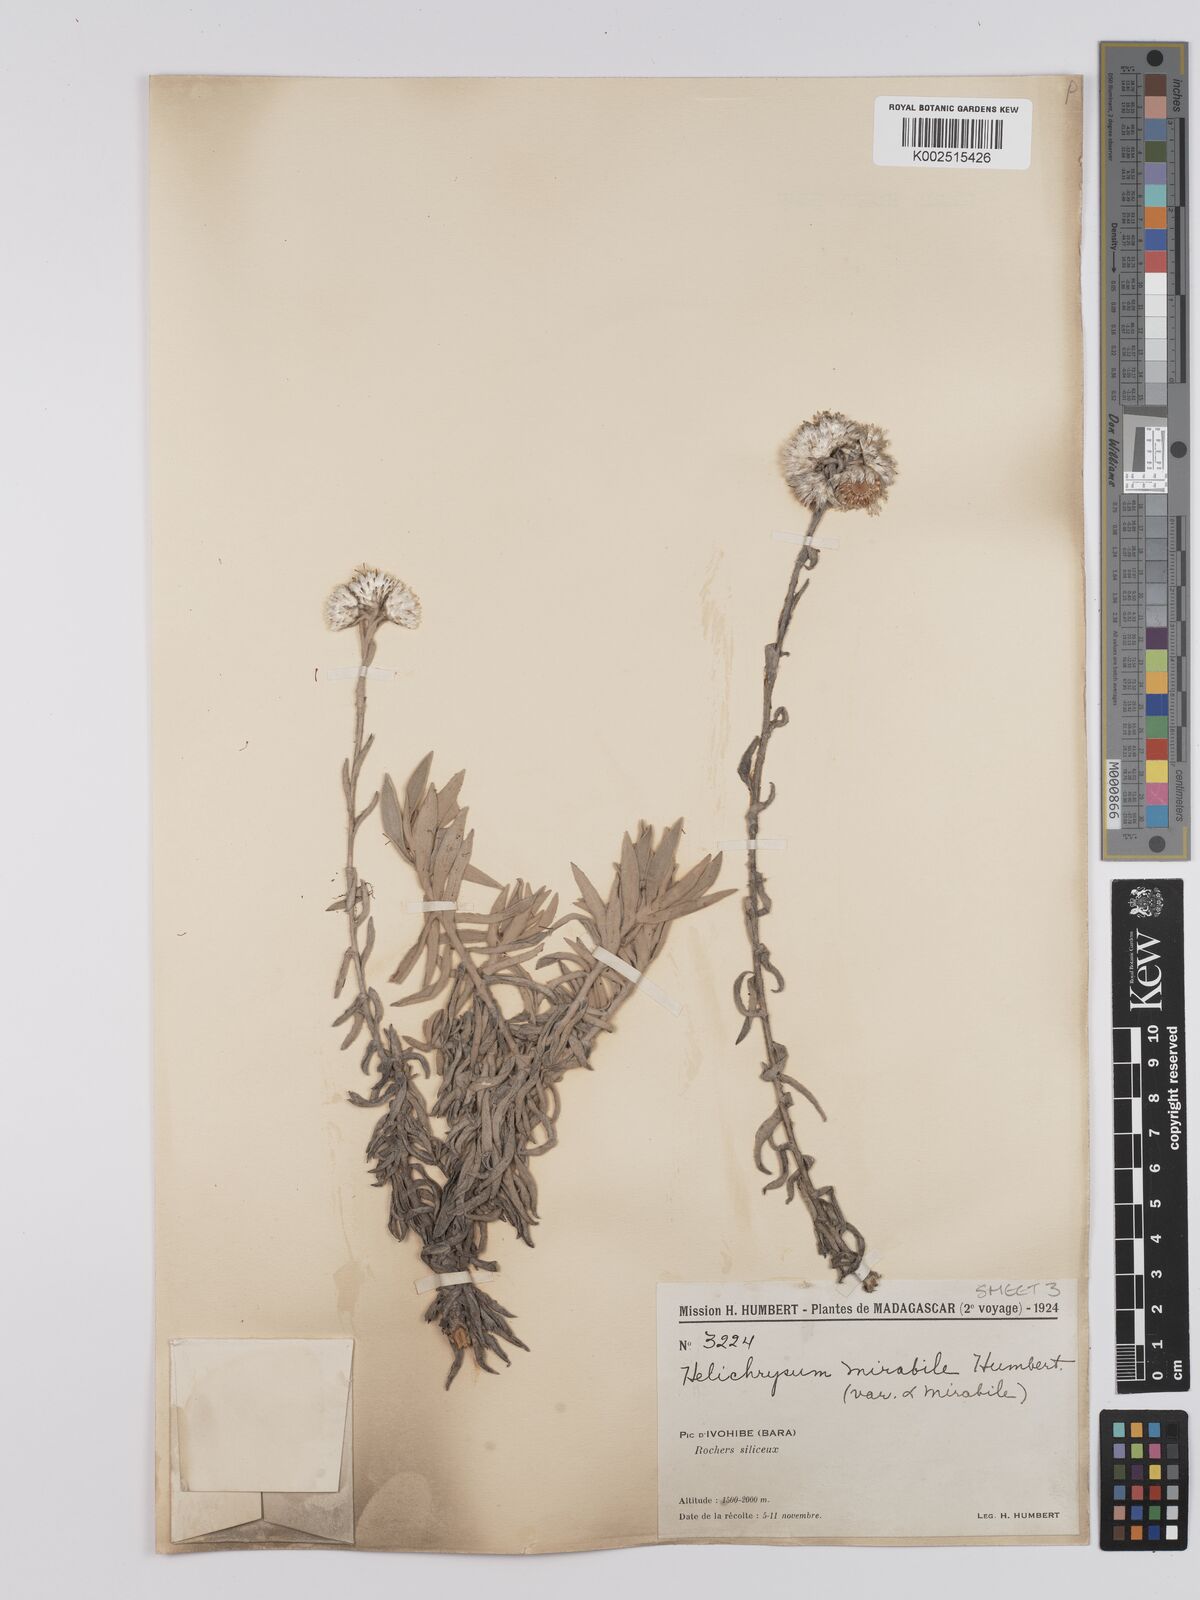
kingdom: Plantae
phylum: Tracheophyta
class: Magnoliopsida
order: Asterales
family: Asteraceae
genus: Helichrysum
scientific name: Helichrysum mirabile
